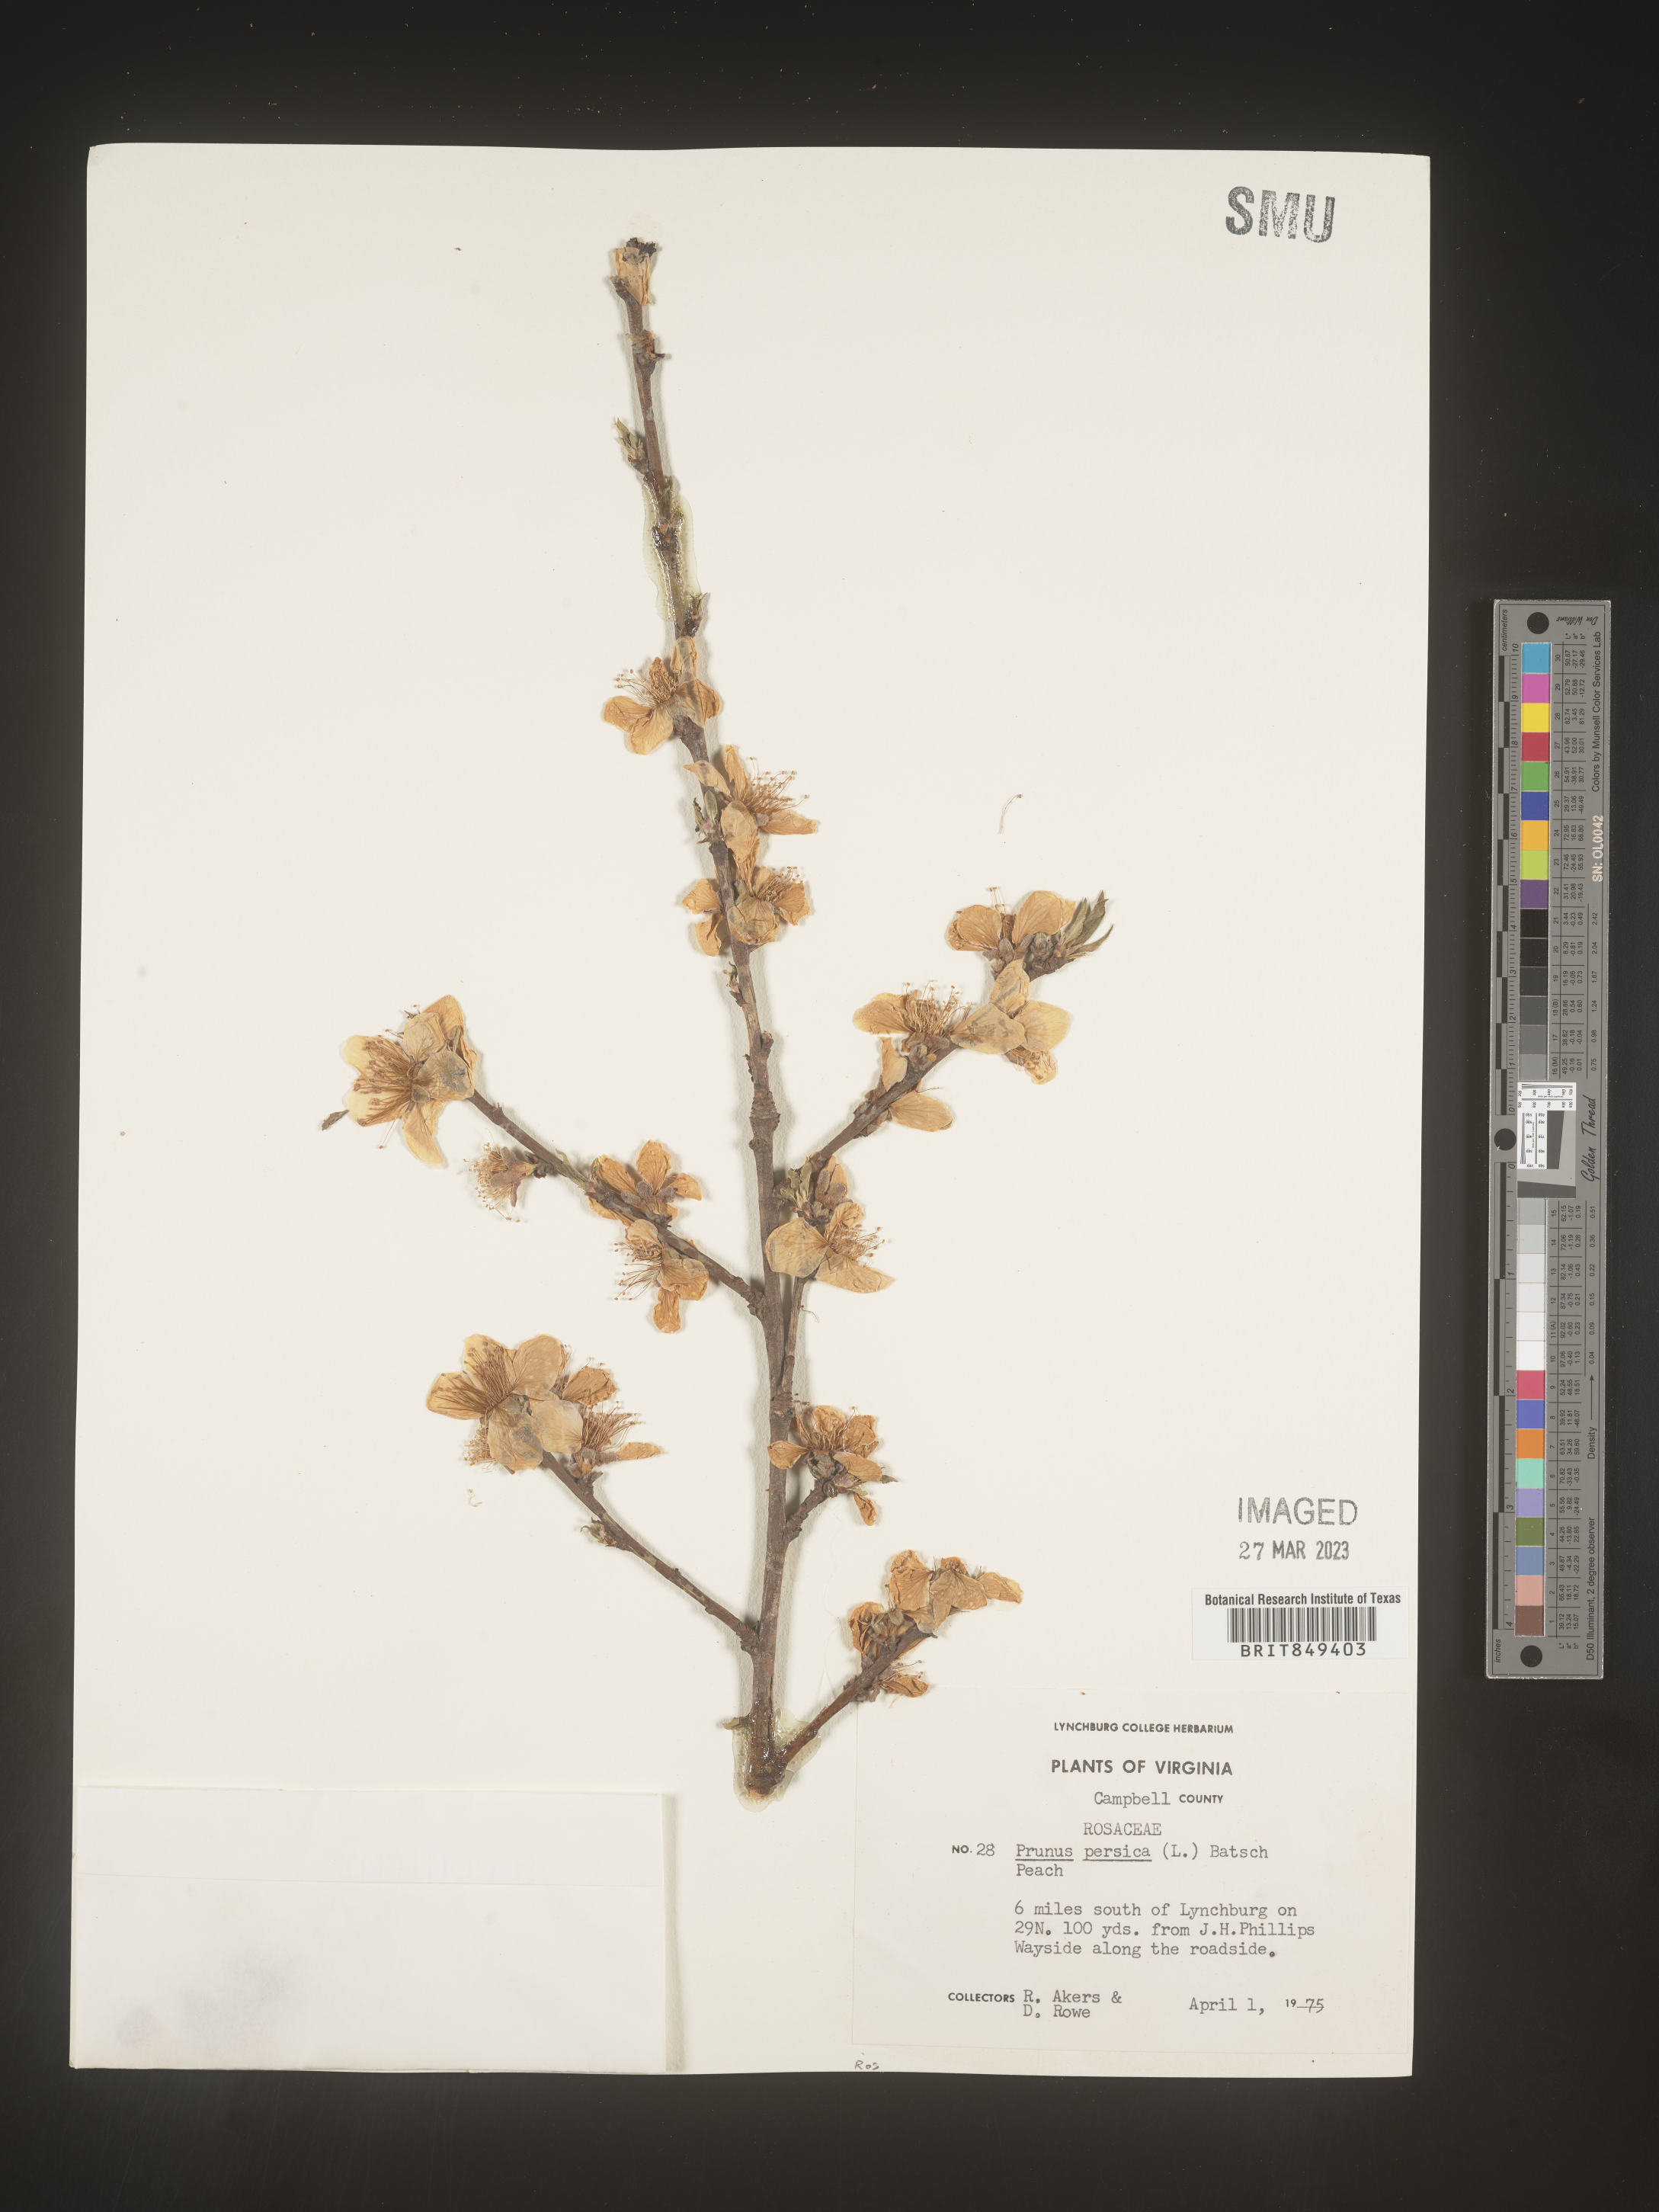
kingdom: Plantae
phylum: Tracheophyta
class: Magnoliopsida
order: Rosales
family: Rosaceae
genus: Prunus
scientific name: Prunus persica
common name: Peach
